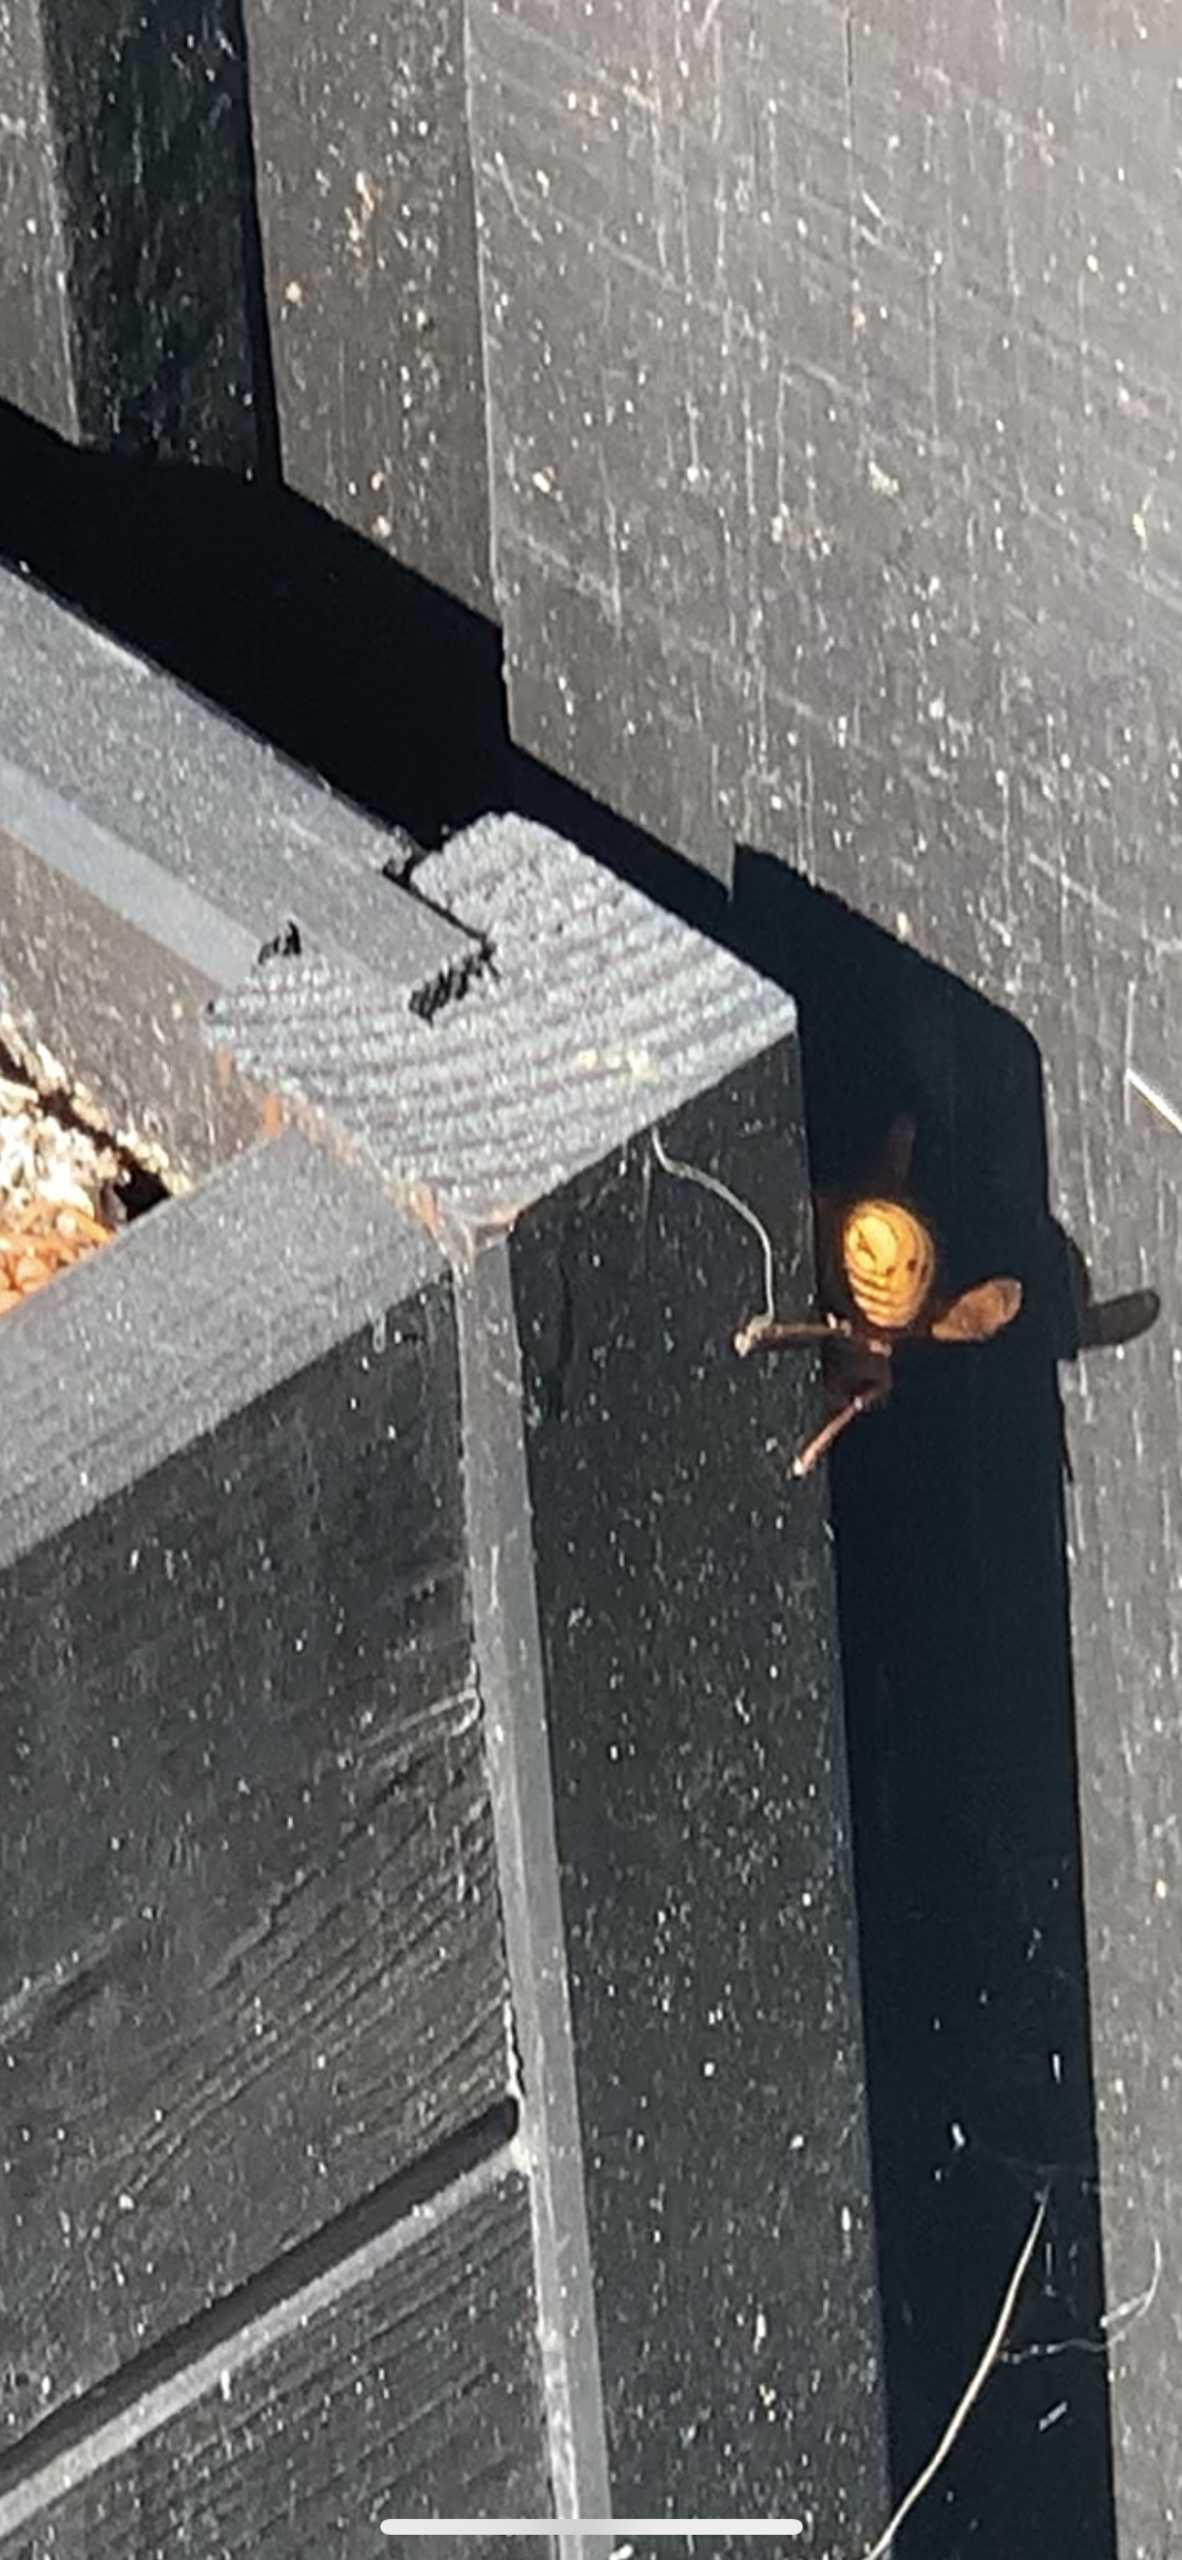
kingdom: Animalia
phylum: Arthropoda
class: Insecta
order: Hymenoptera
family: Vespidae
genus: Vespa
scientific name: Vespa crabro
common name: Stor gedehams
